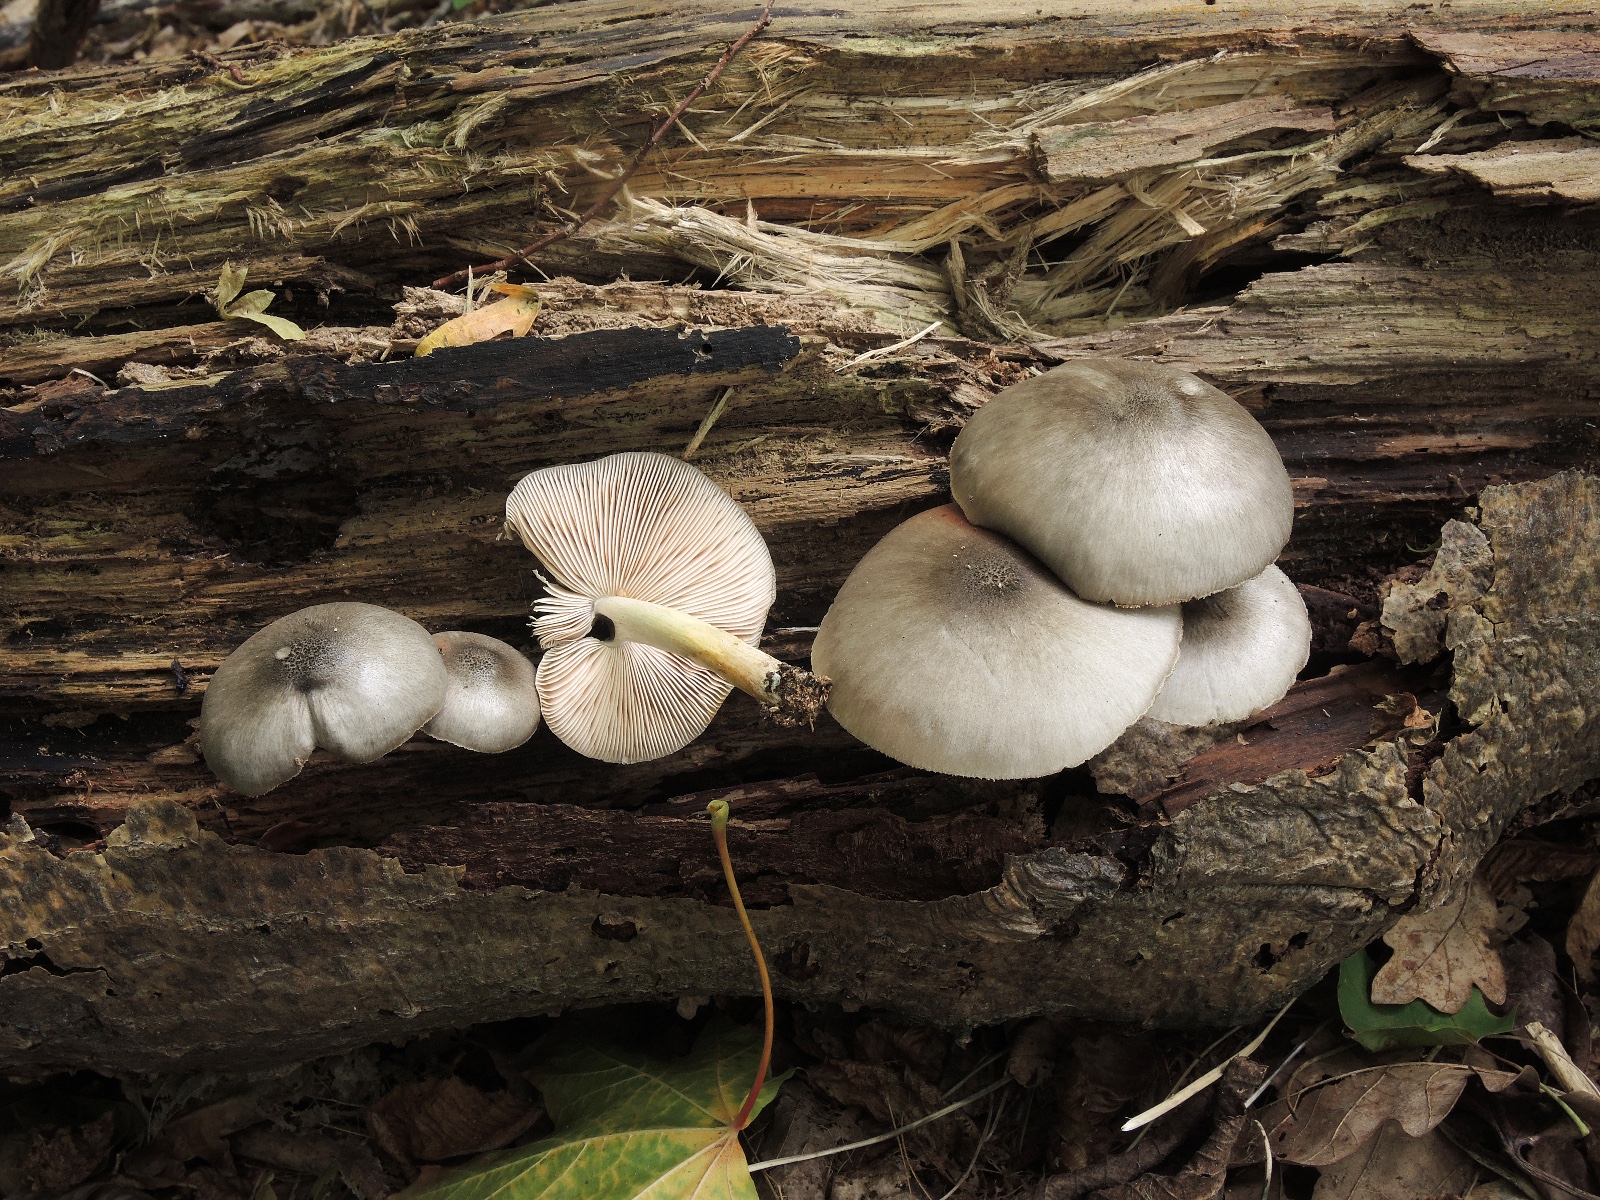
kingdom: Fungi
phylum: Basidiomycota
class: Agaricomycetes
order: Agaricales
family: Pluteaceae
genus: Pluteus
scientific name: Pluteus salicinus
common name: stiv skærmhat
